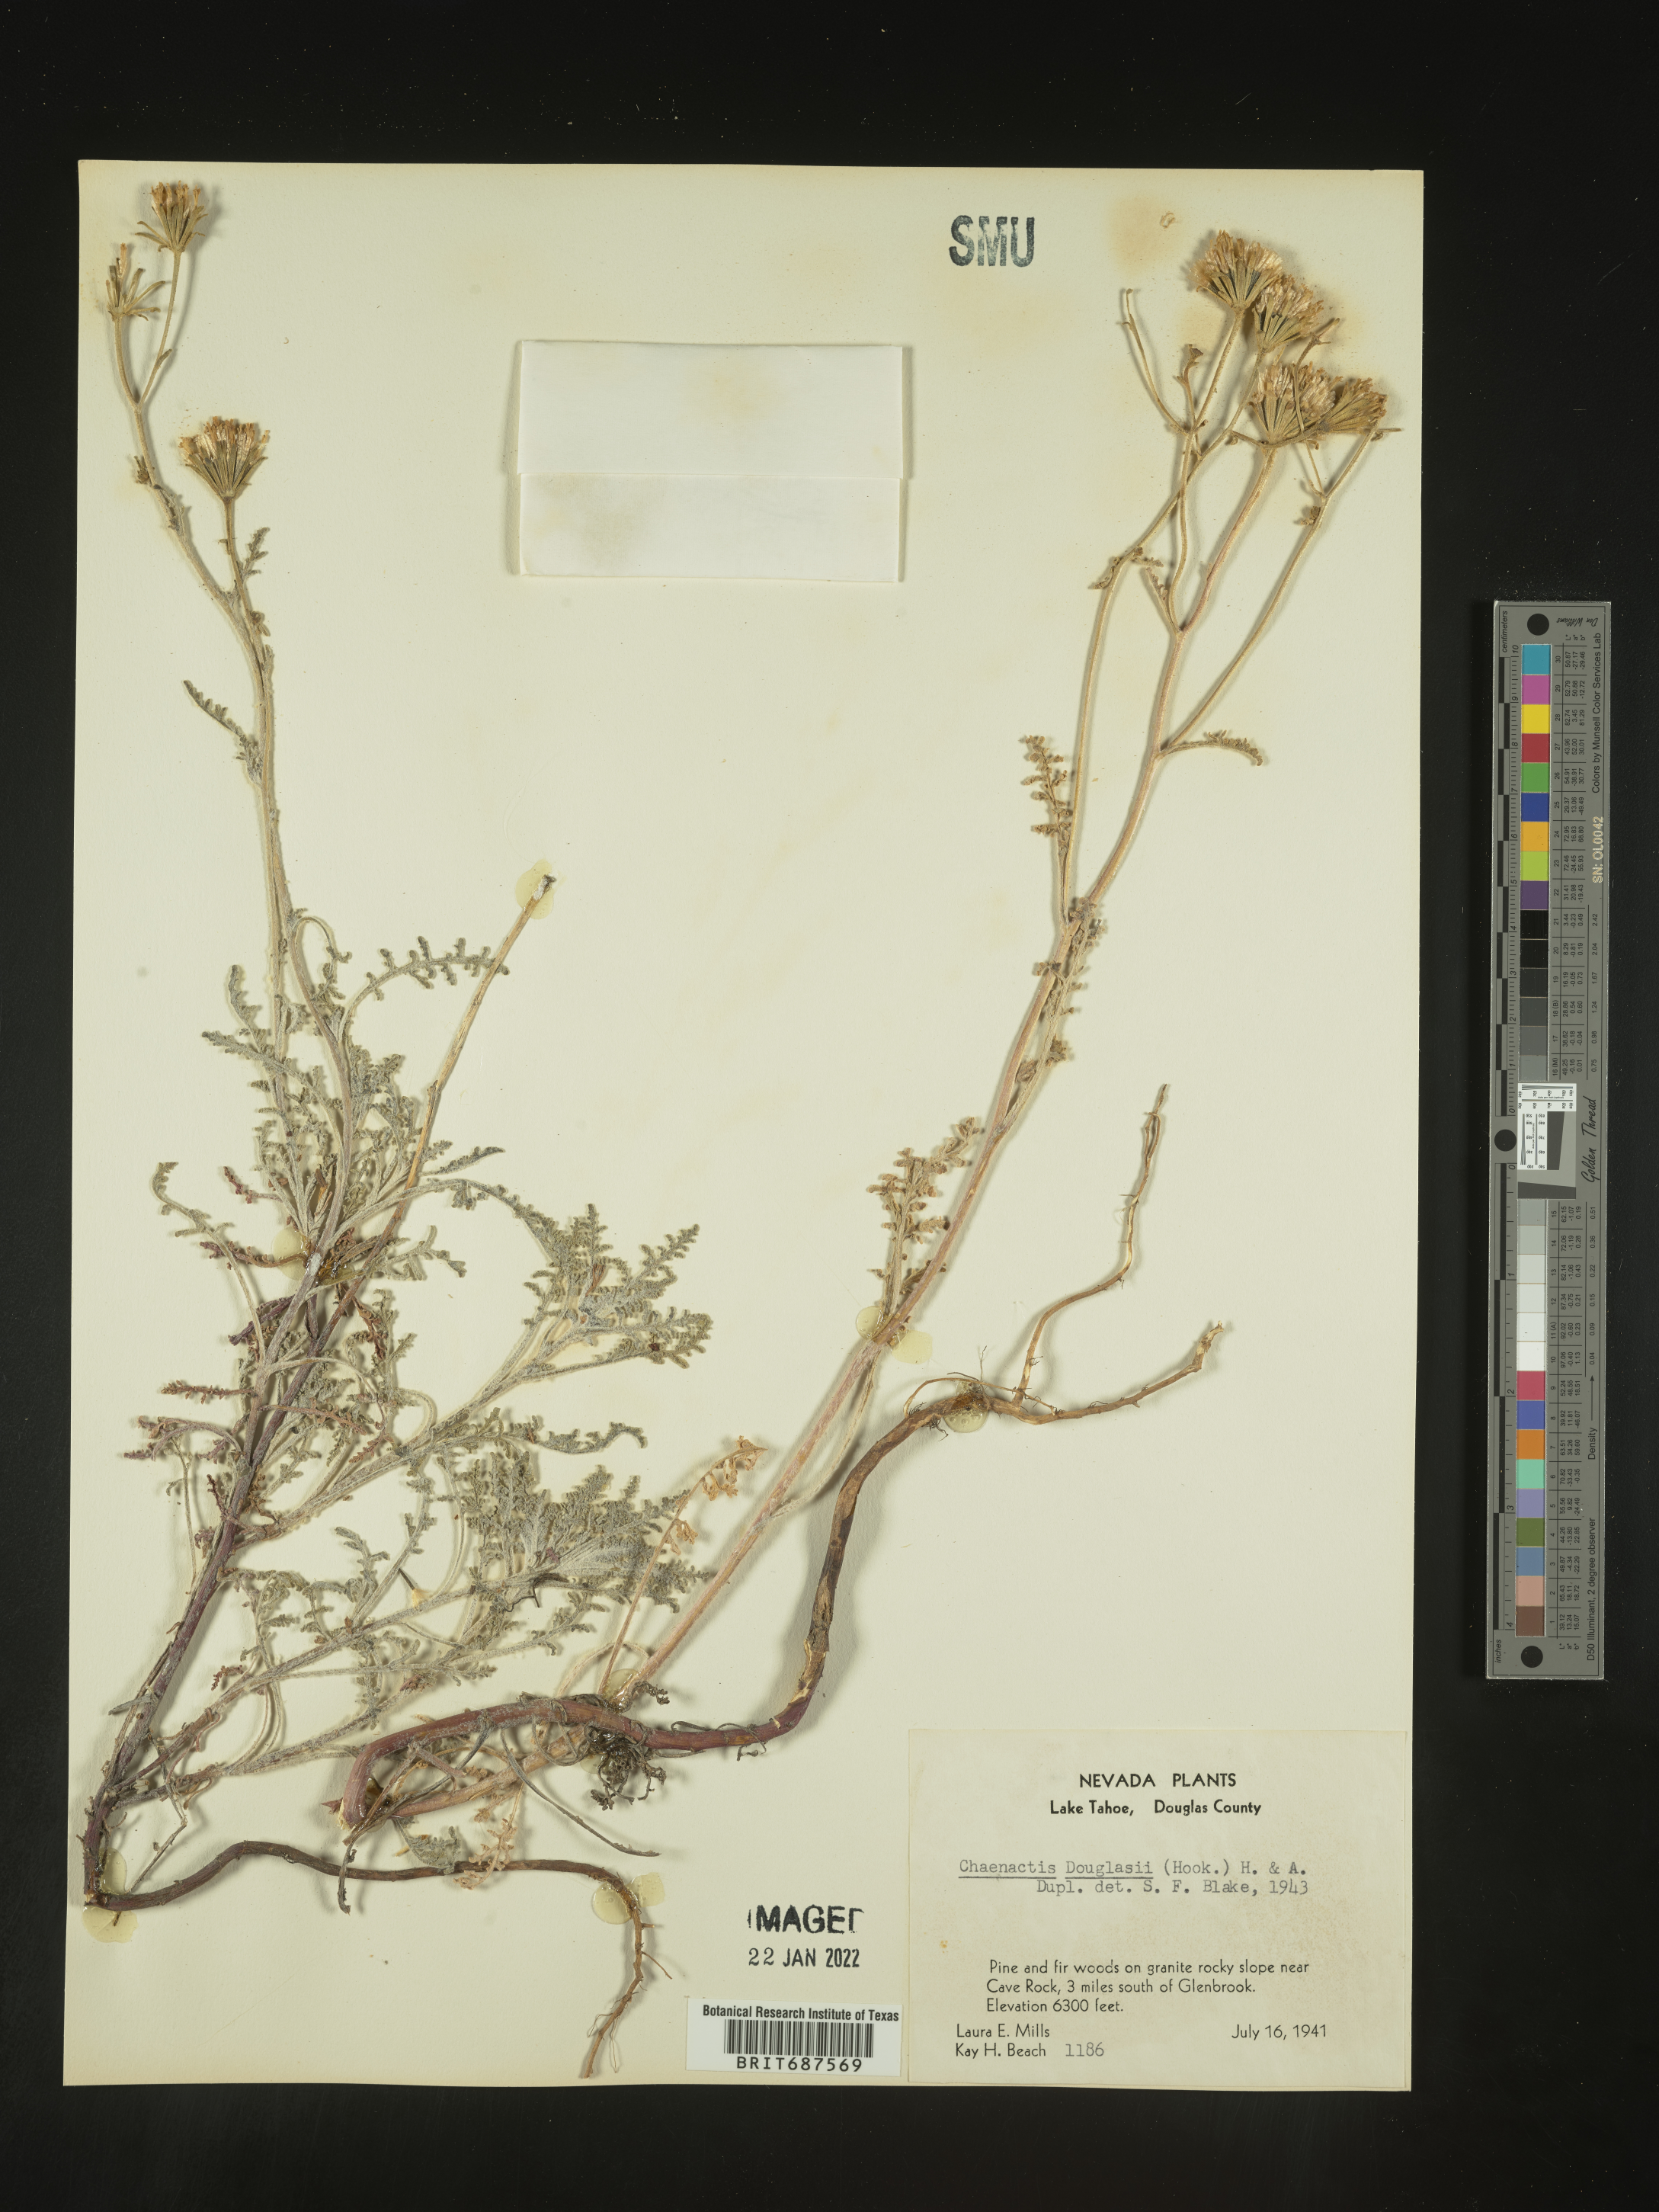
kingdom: Plantae
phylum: Tracheophyta
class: Magnoliopsida
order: Asterales
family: Asteraceae
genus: Chaenactis
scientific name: Chaenactis douglasii
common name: Hoary pincushion
